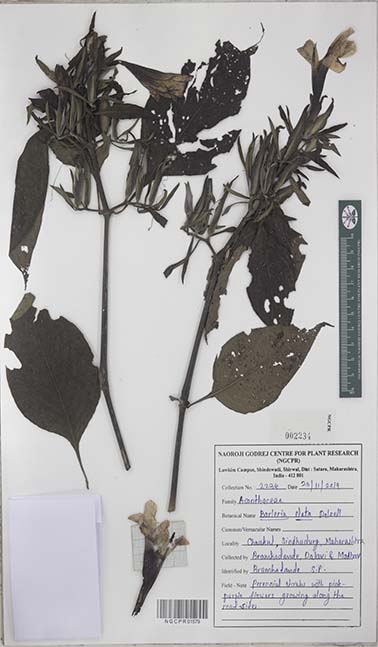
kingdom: Plantae
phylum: Tracheophyta
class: Magnoliopsida
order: Lamiales
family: Acanthaceae
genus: Barleria
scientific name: Barleria involucrata
